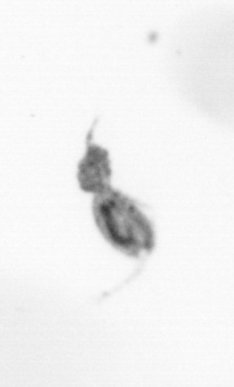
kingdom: Animalia
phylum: Arthropoda
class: Copepoda
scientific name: Copepoda
